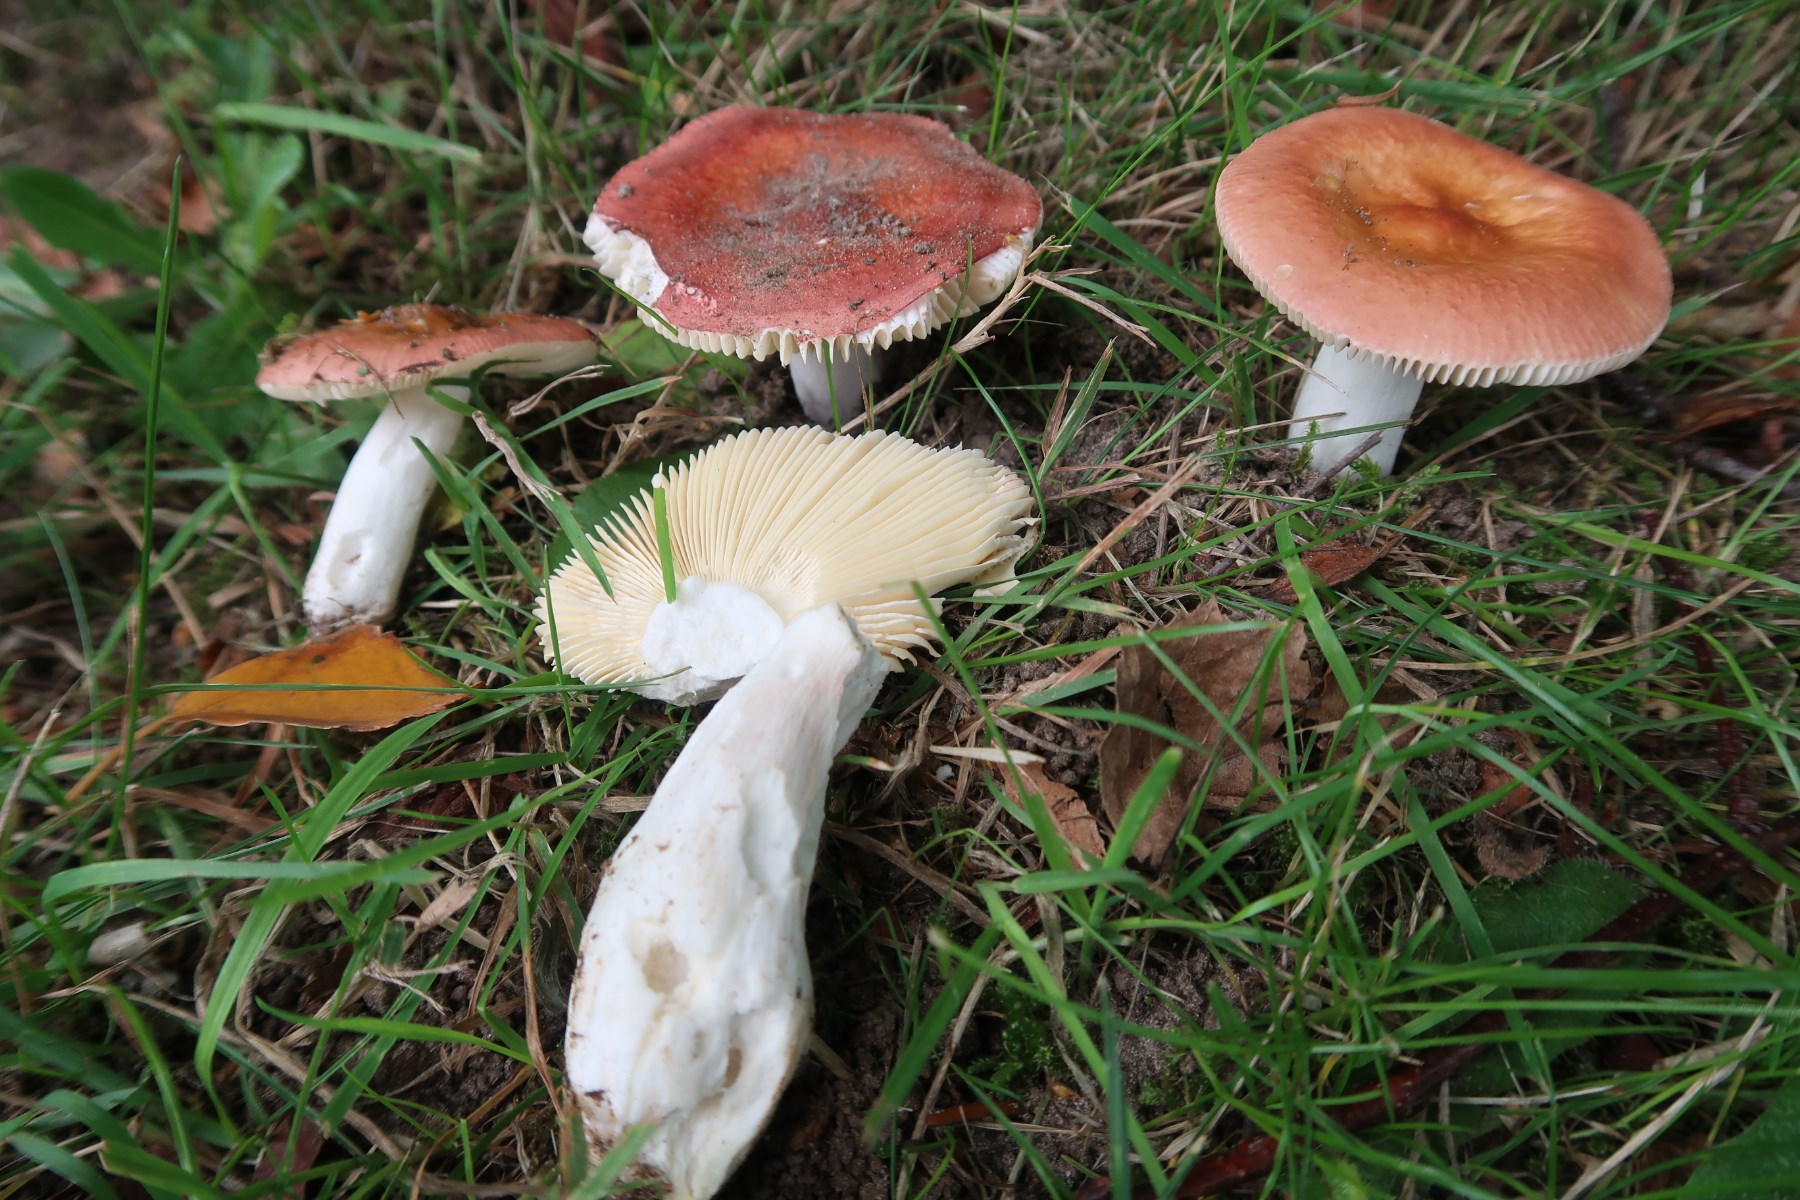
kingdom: Fungi
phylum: Basidiomycota
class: Agaricomycetes
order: Russulales
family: Russulaceae
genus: Russula
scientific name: Russula velenovskyi
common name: orangerød skørhat
